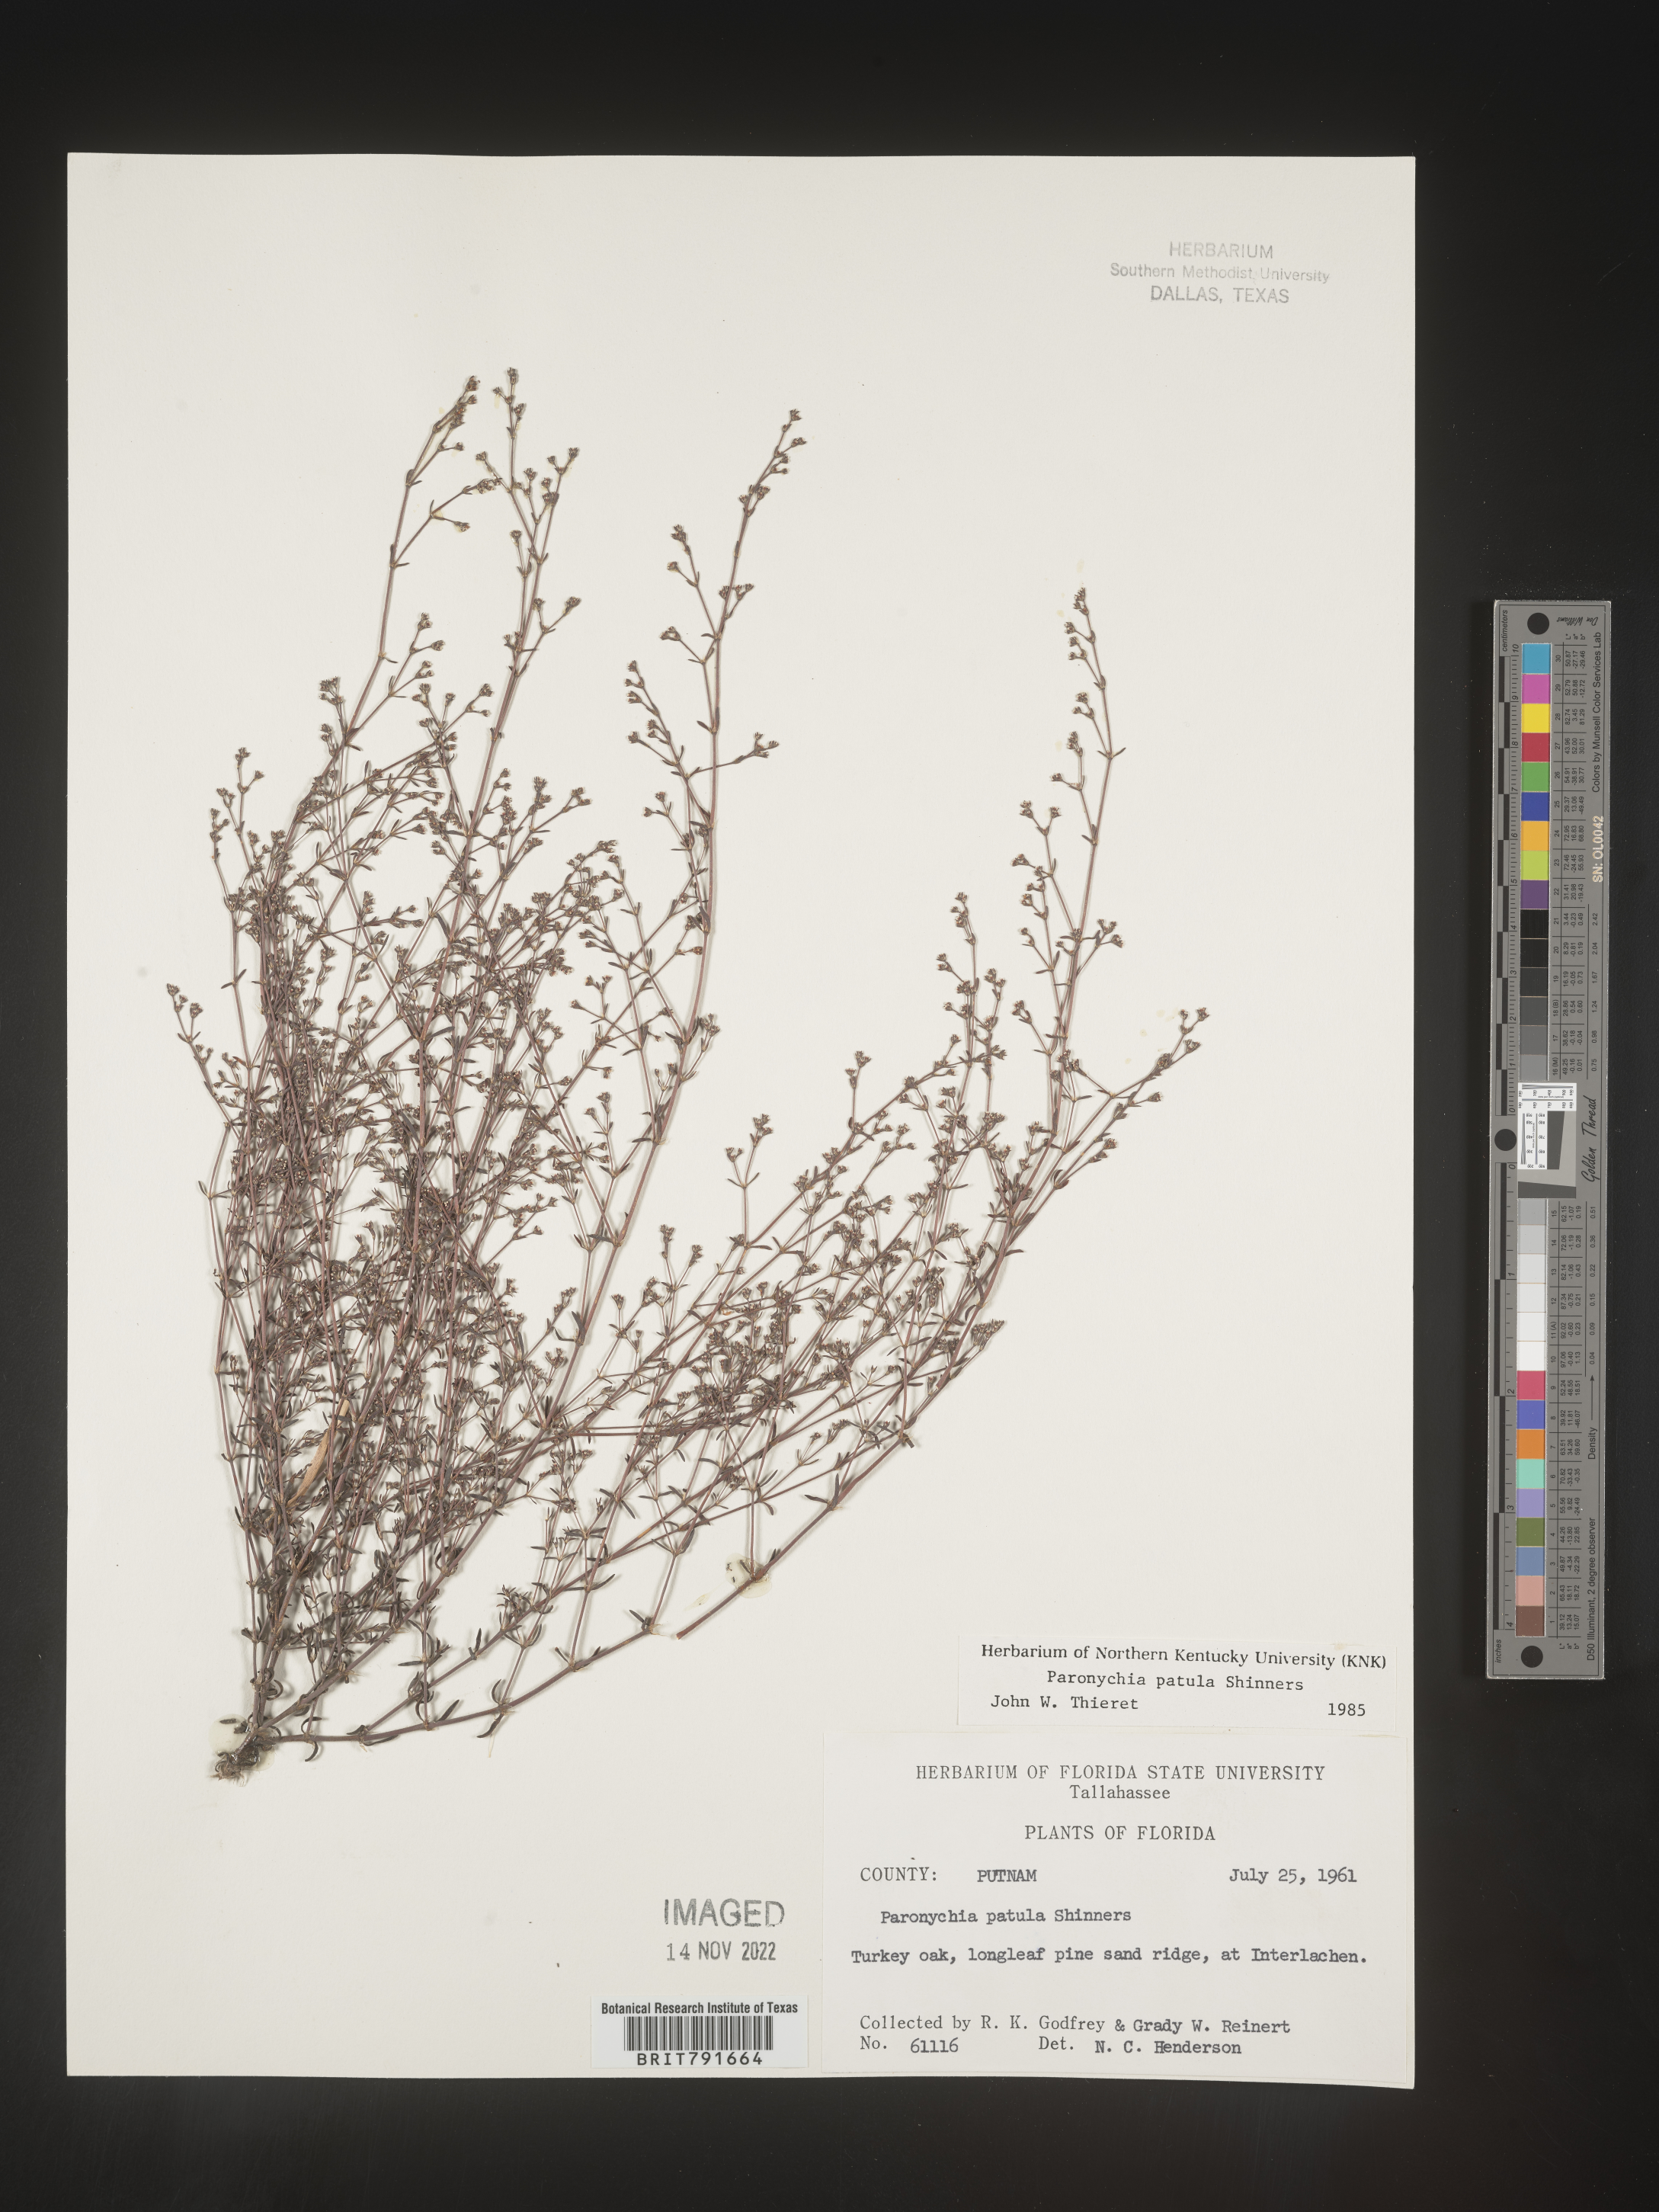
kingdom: Plantae
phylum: Tracheophyta
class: Magnoliopsida
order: Caryophyllales
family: Caryophyllaceae
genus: Paronychia
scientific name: Paronychia patula
